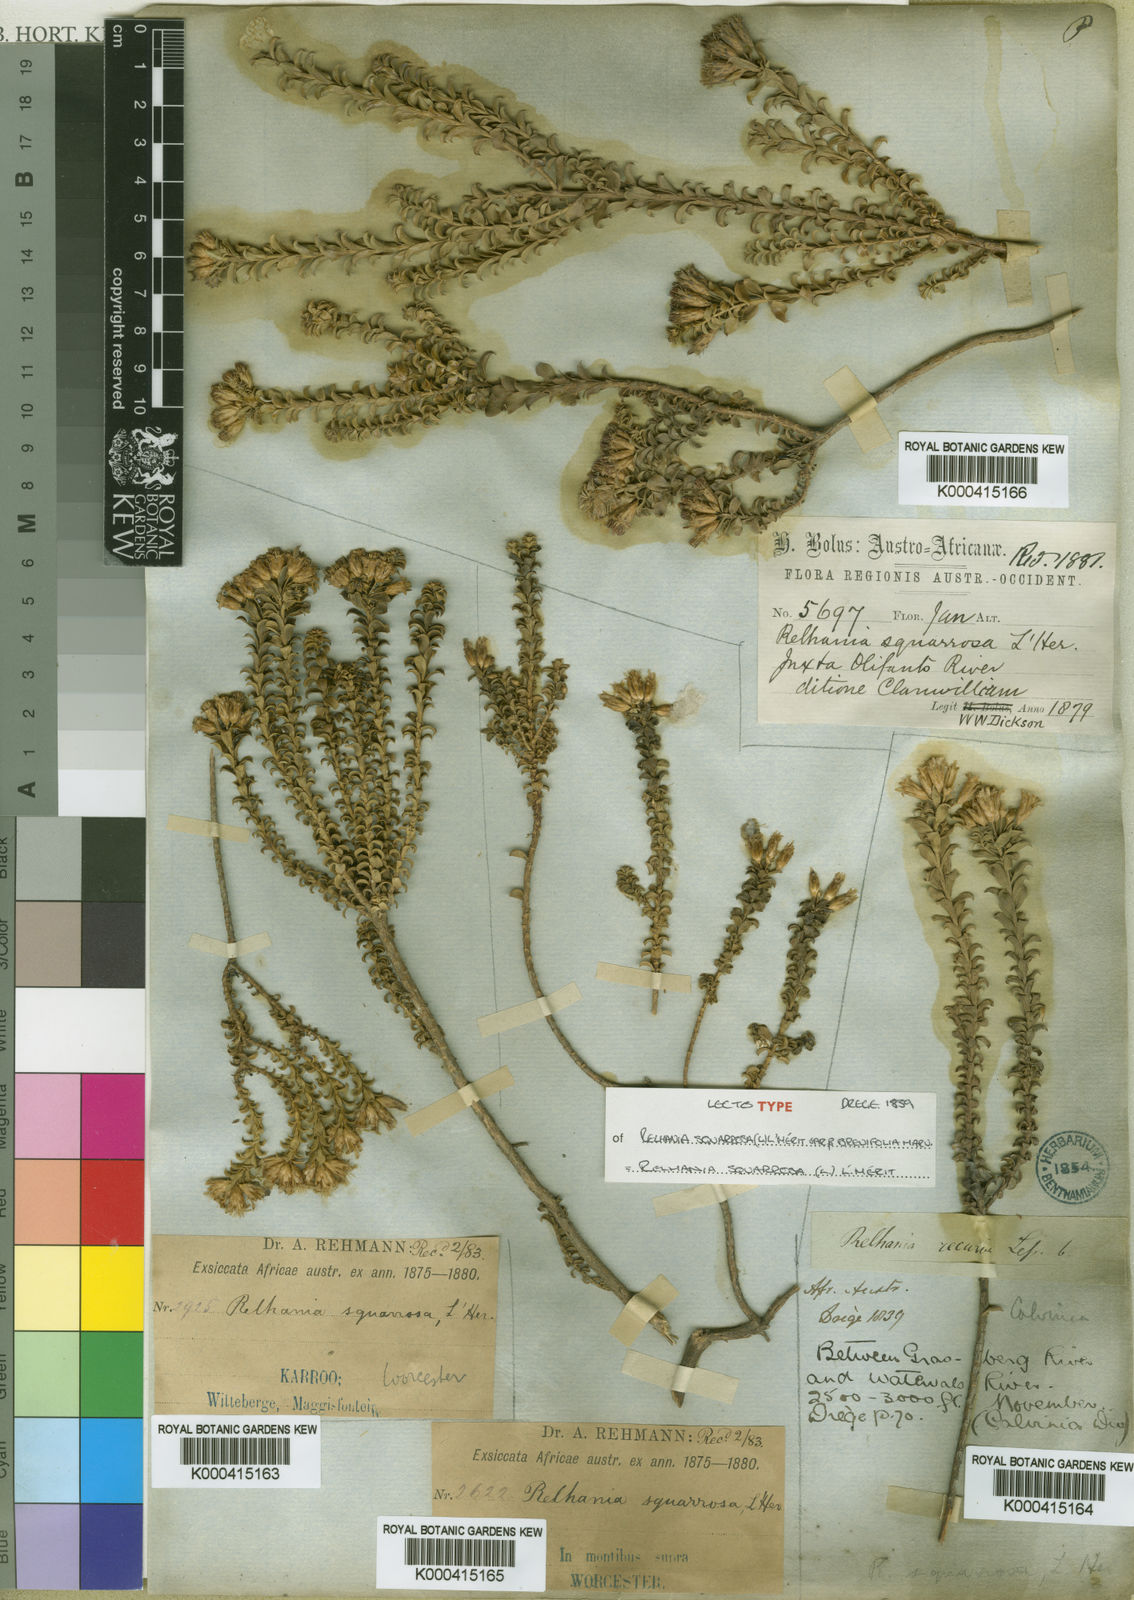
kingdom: Plantae
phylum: Tracheophyta
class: Magnoliopsida
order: Asterales
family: Asteraceae
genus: Oedera
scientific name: Oedera Relhania spec
